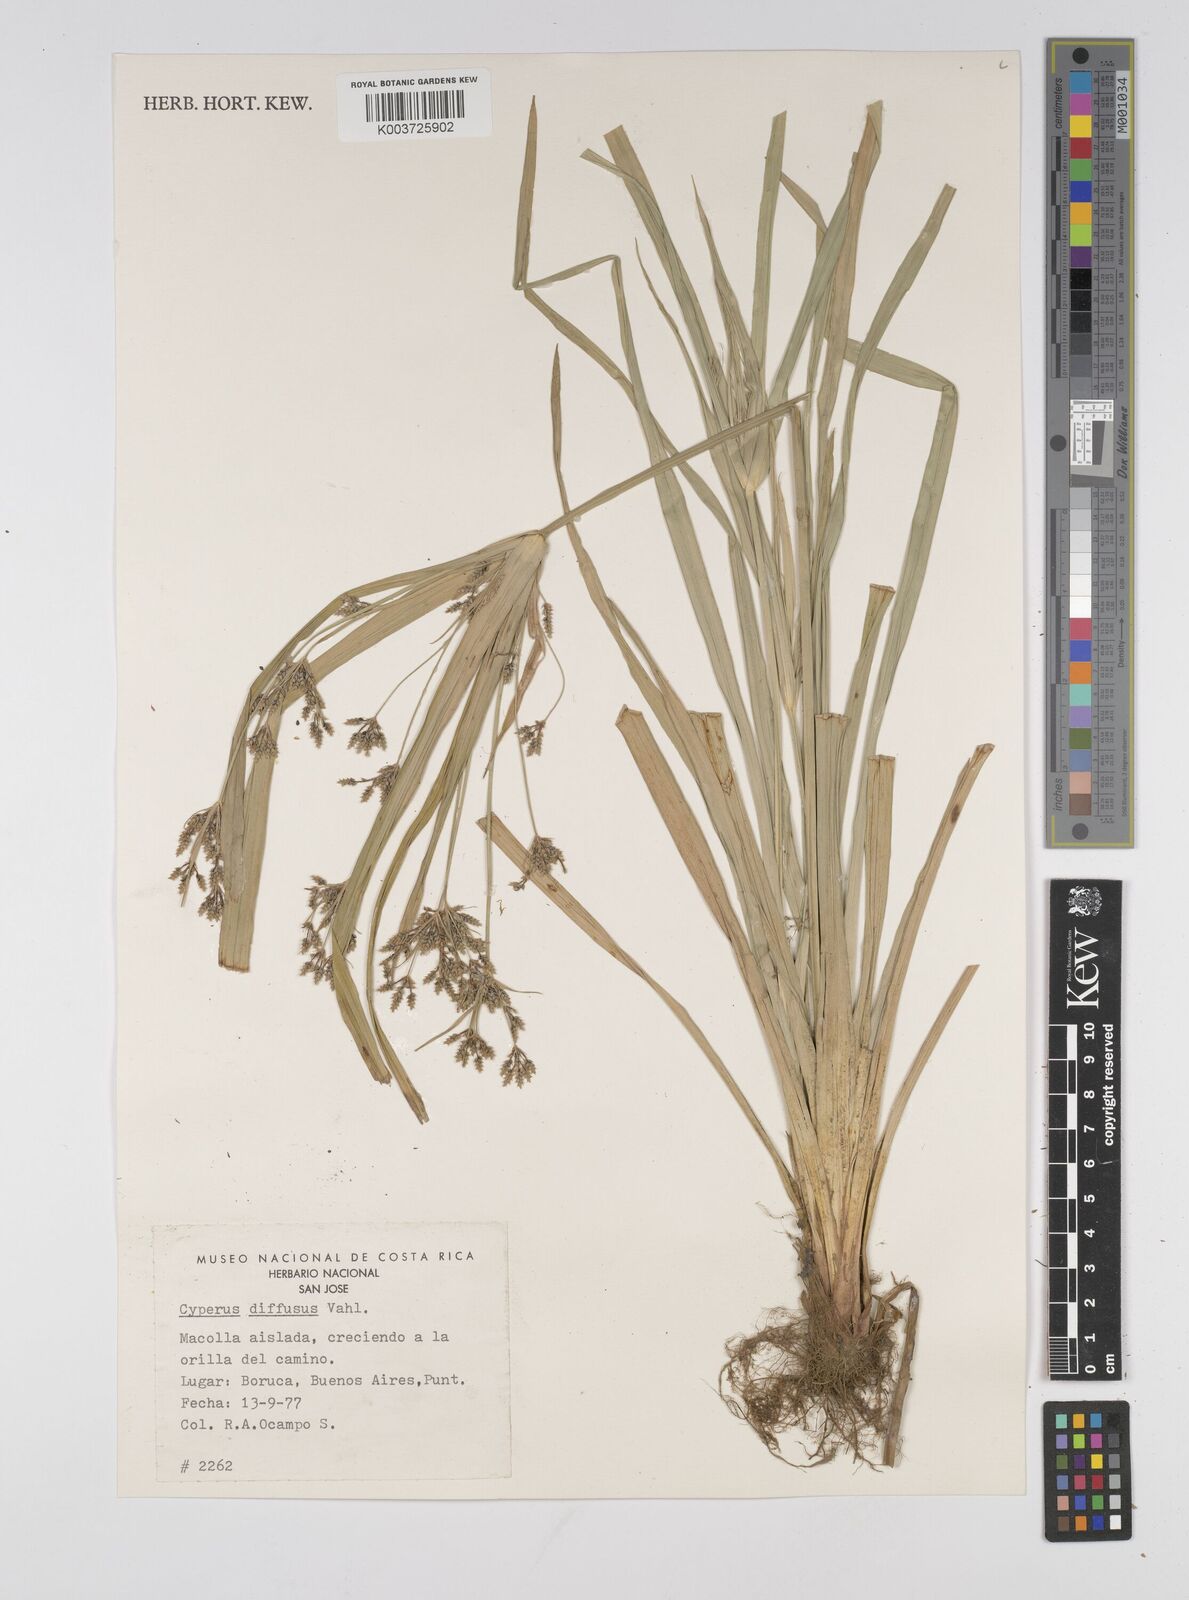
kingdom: Plantae
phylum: Tracheophyta
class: Liliopsida
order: Poales
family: Cyperaceae
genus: Cyperus
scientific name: Cyperus diffusus
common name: Dwarf umbrella grass
